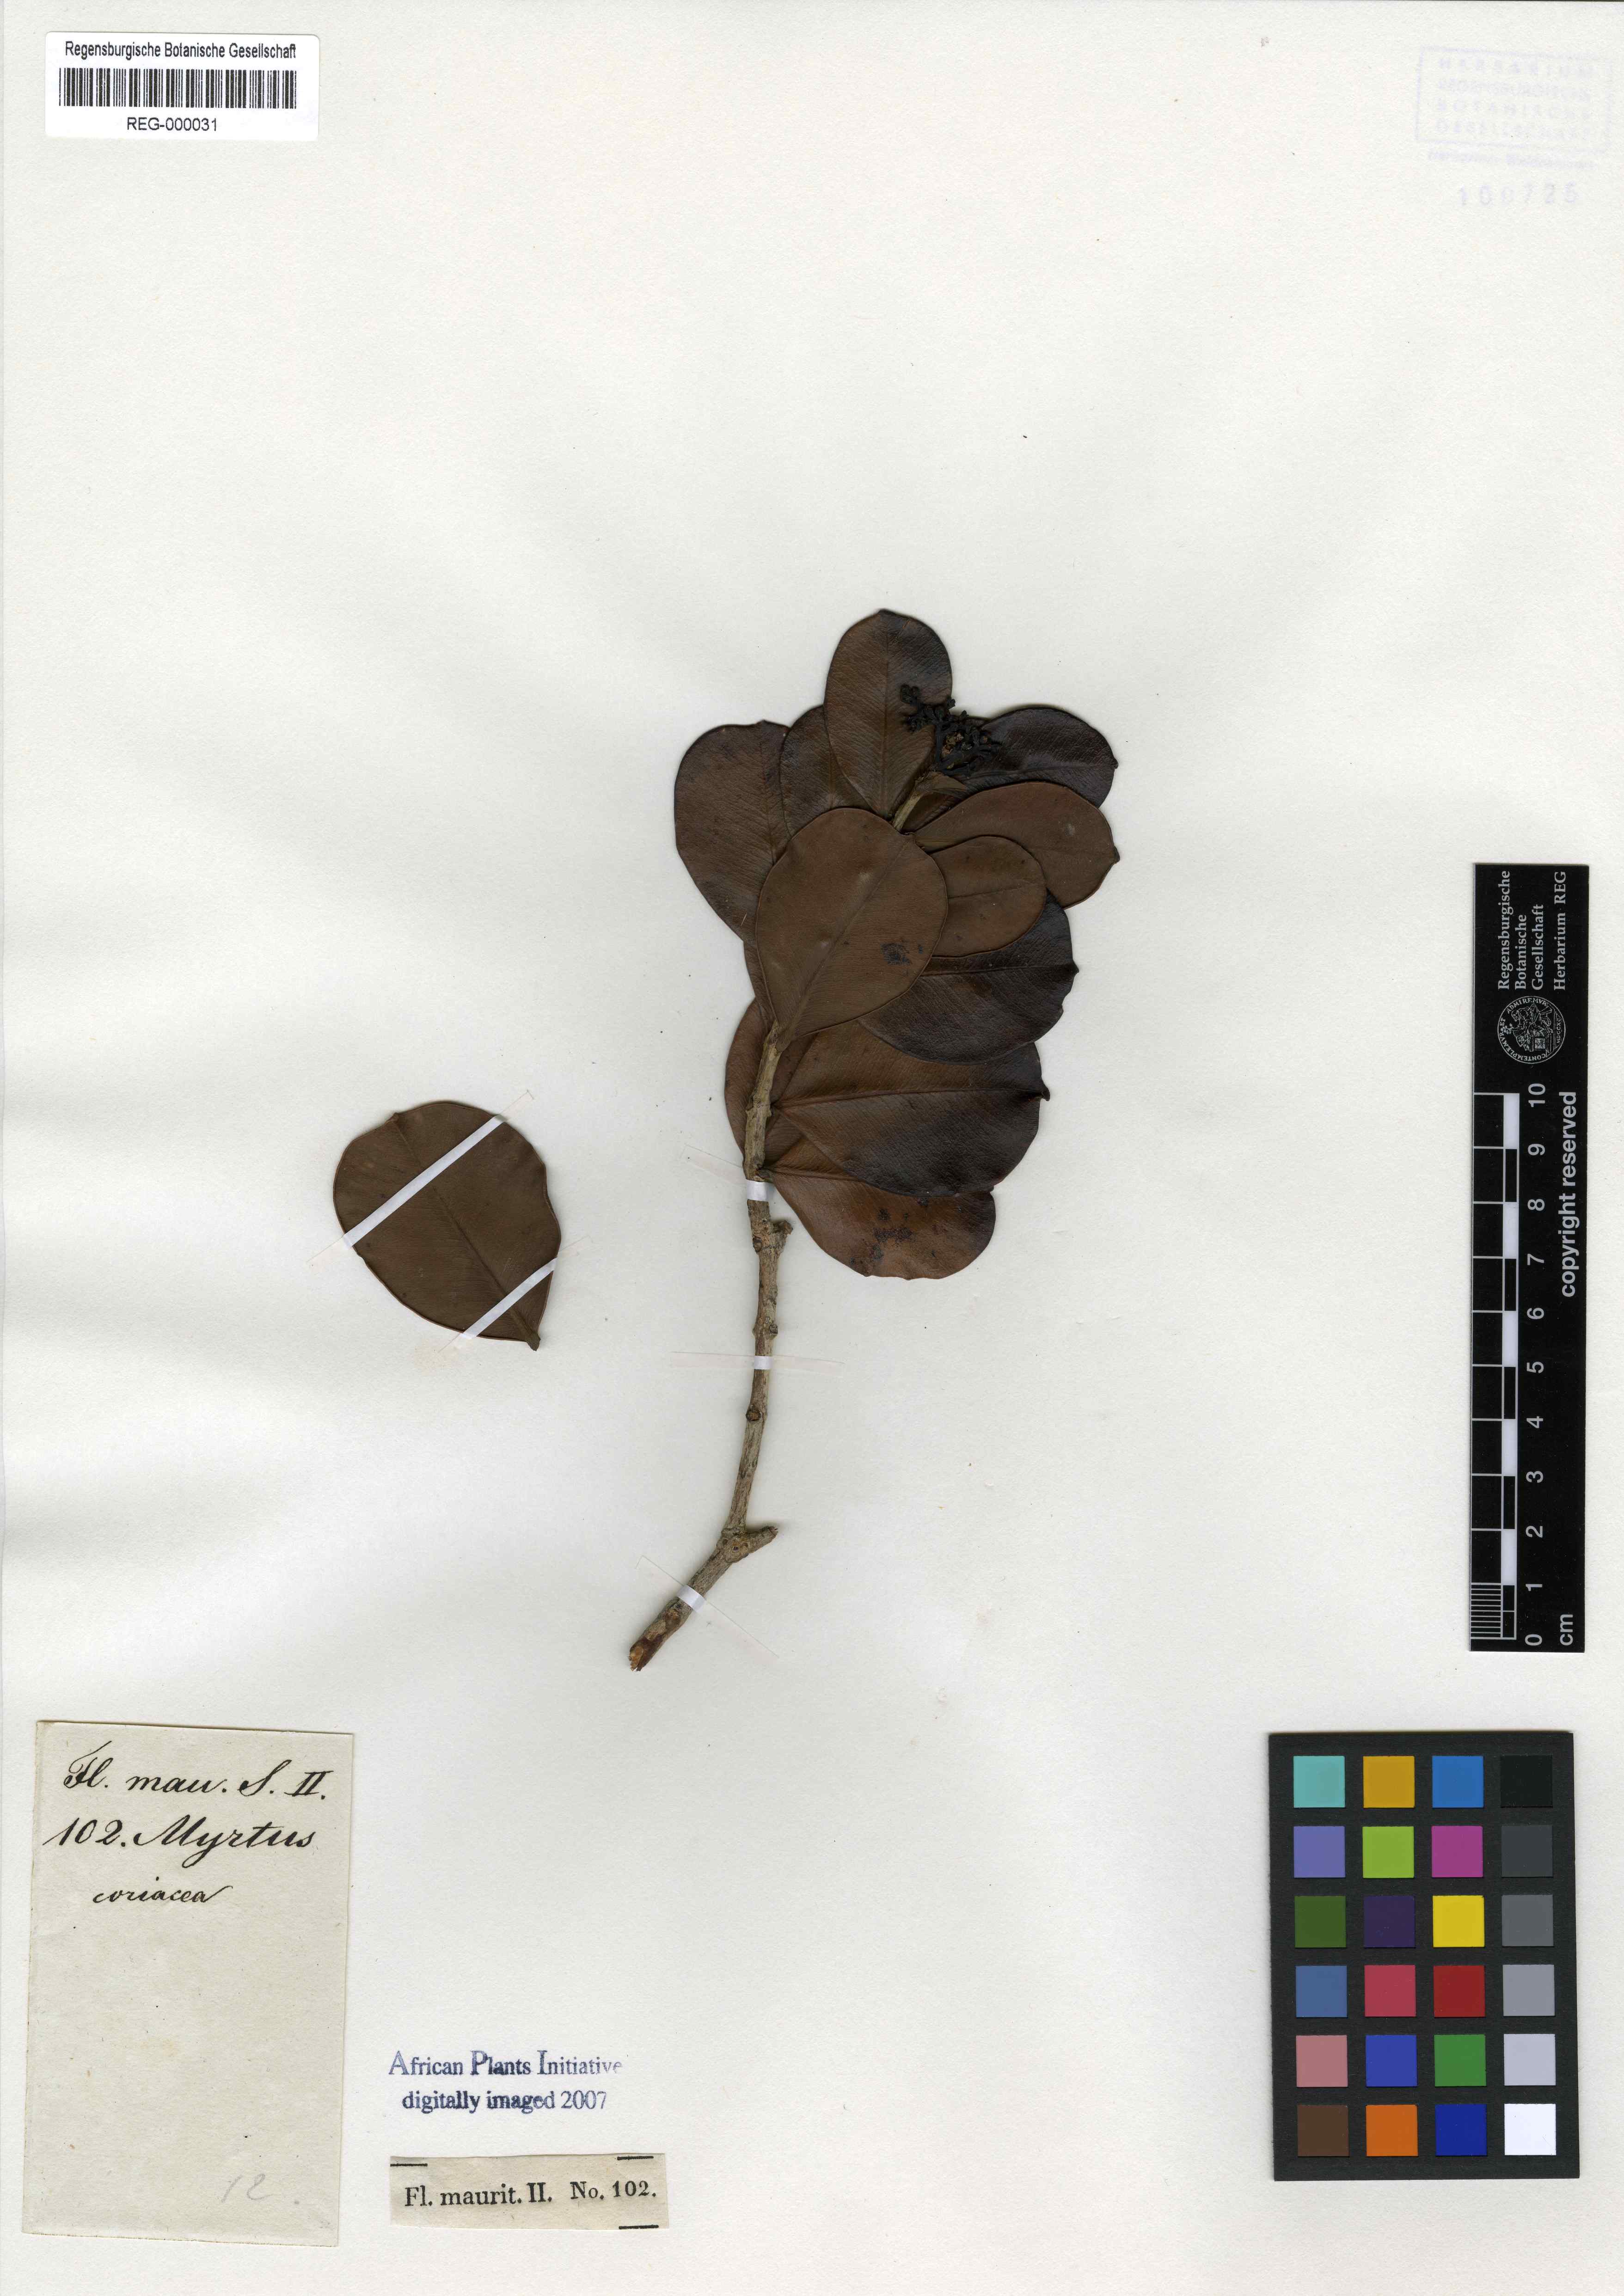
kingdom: Plantae
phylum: Tracheophyta
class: Magnoliopsida
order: Myrtales
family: Myrtaceae
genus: Myrcia
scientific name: Myrcia guianensis
